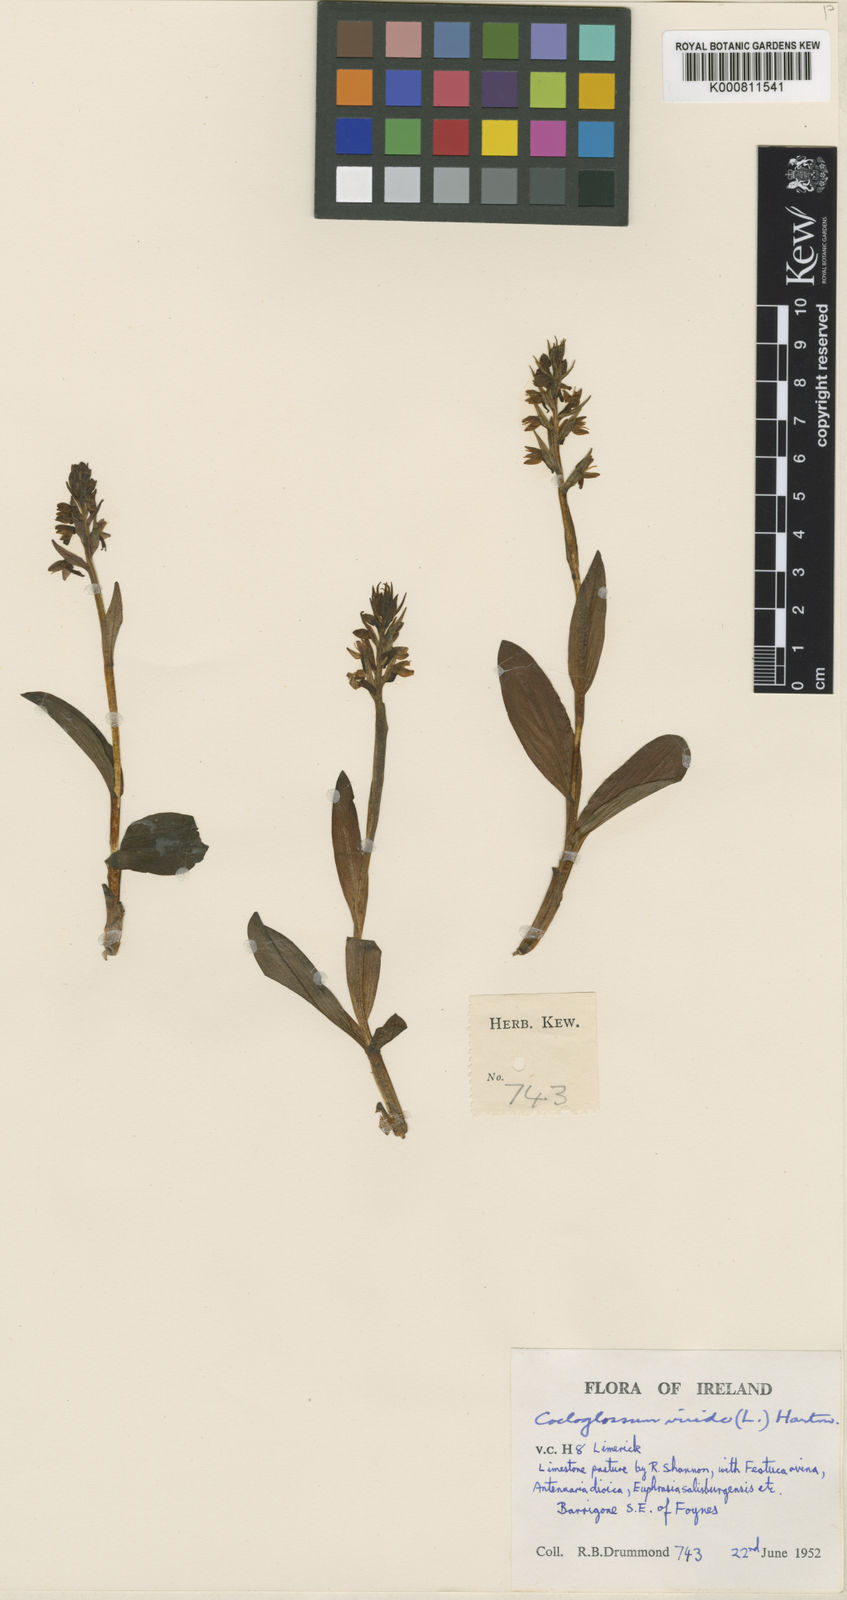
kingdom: Plantae
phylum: Tracheophyta
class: Liliopsida
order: Asparagales
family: Orchidaceae
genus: Dactylorhiza
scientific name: Dactylorhiza viridis
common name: Longbract frog orchid
